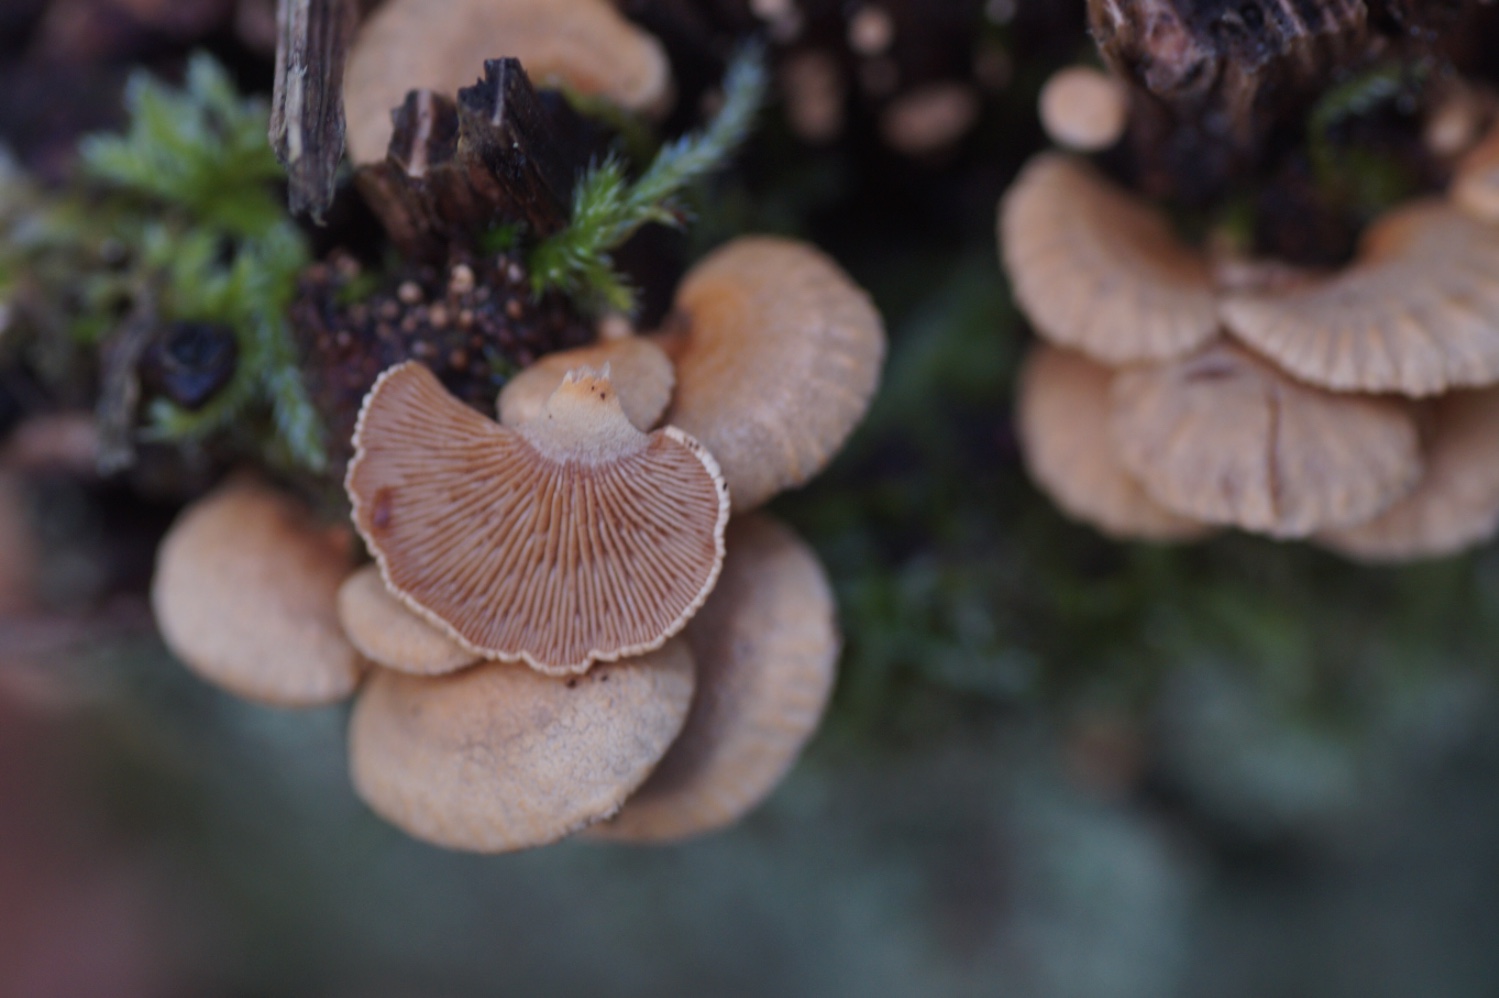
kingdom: Fungi
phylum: Basidiomycota
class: Agaricomycetes
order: Agaricales
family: Mycenaceae
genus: Panellus
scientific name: Panellus stipticus
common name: kliddet epaulethat
